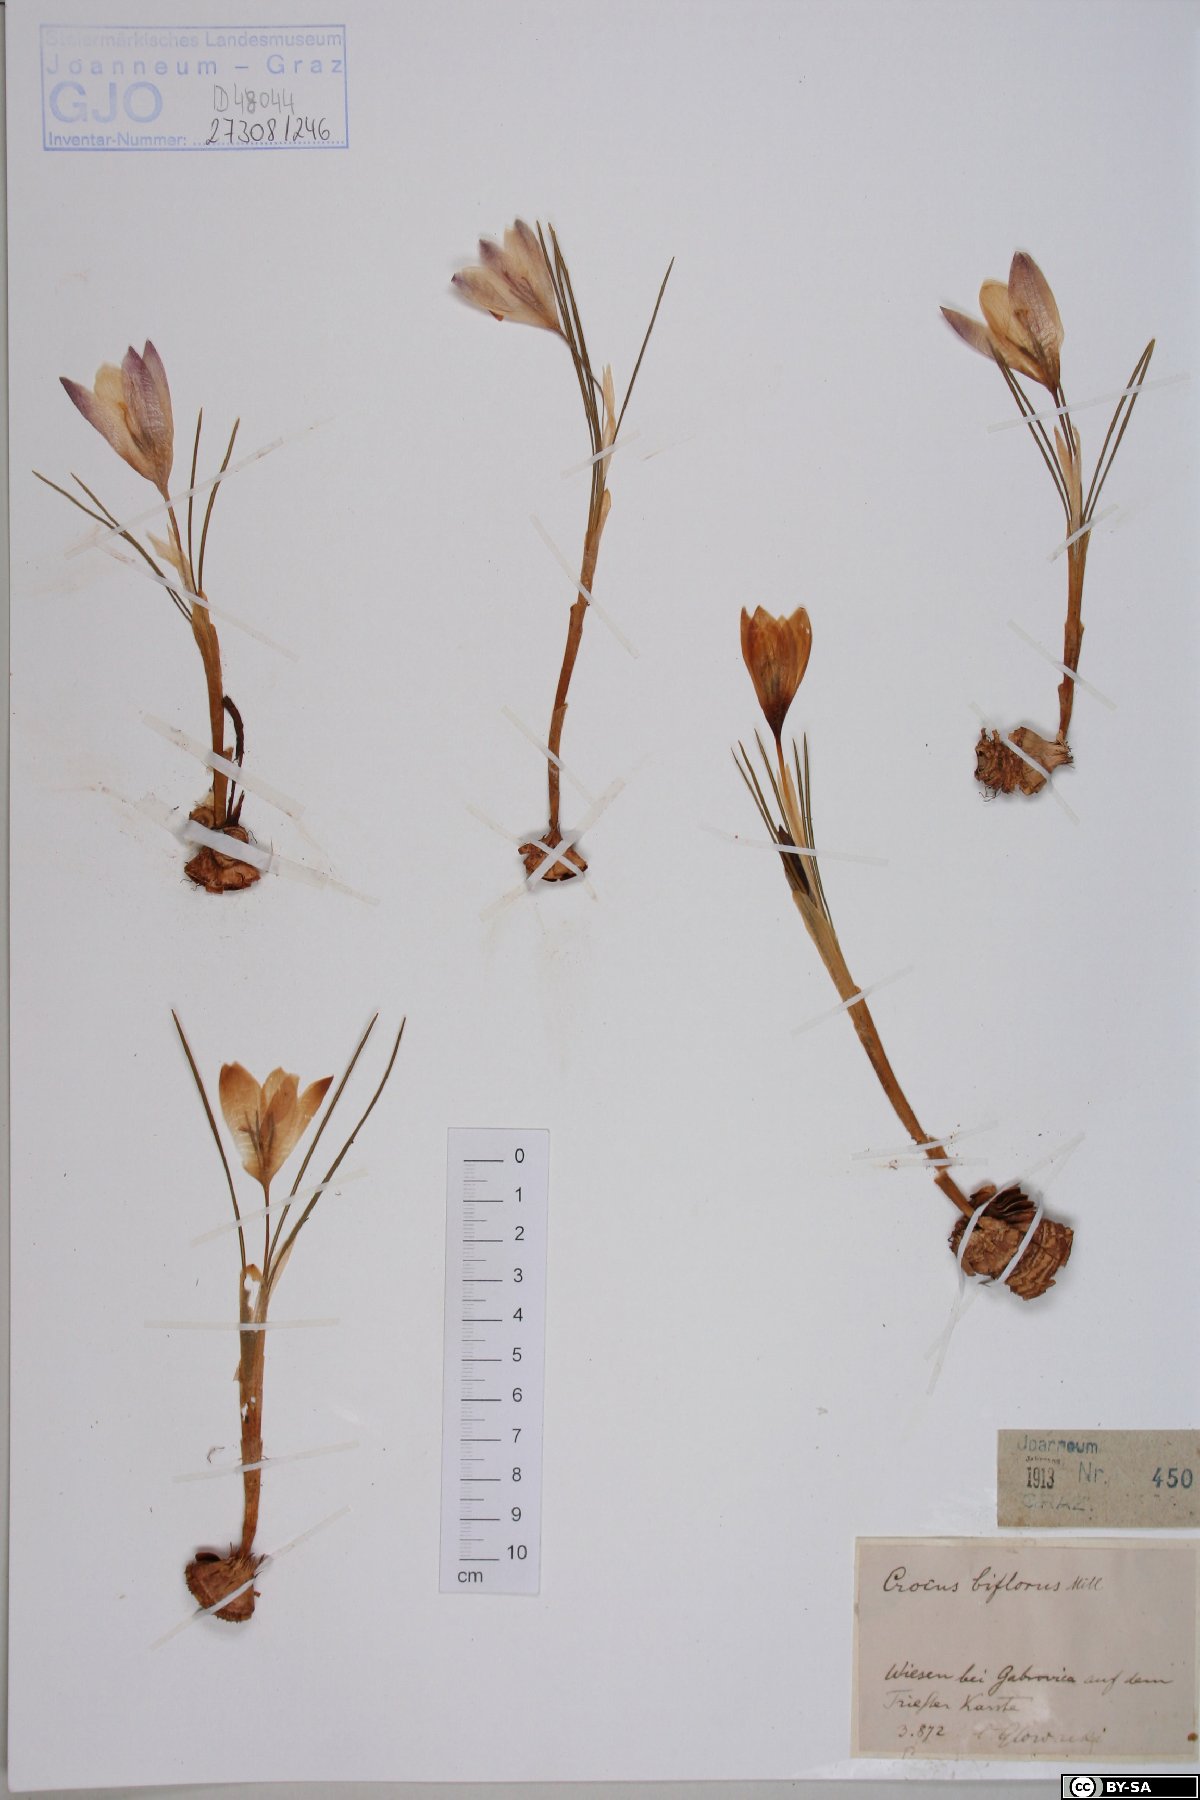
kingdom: Plantae
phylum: Tracheophyta
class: Liliopsida
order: Asparagales
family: Iridaceae
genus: Crocus
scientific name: Crocus biflorus
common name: Silvery crocus
